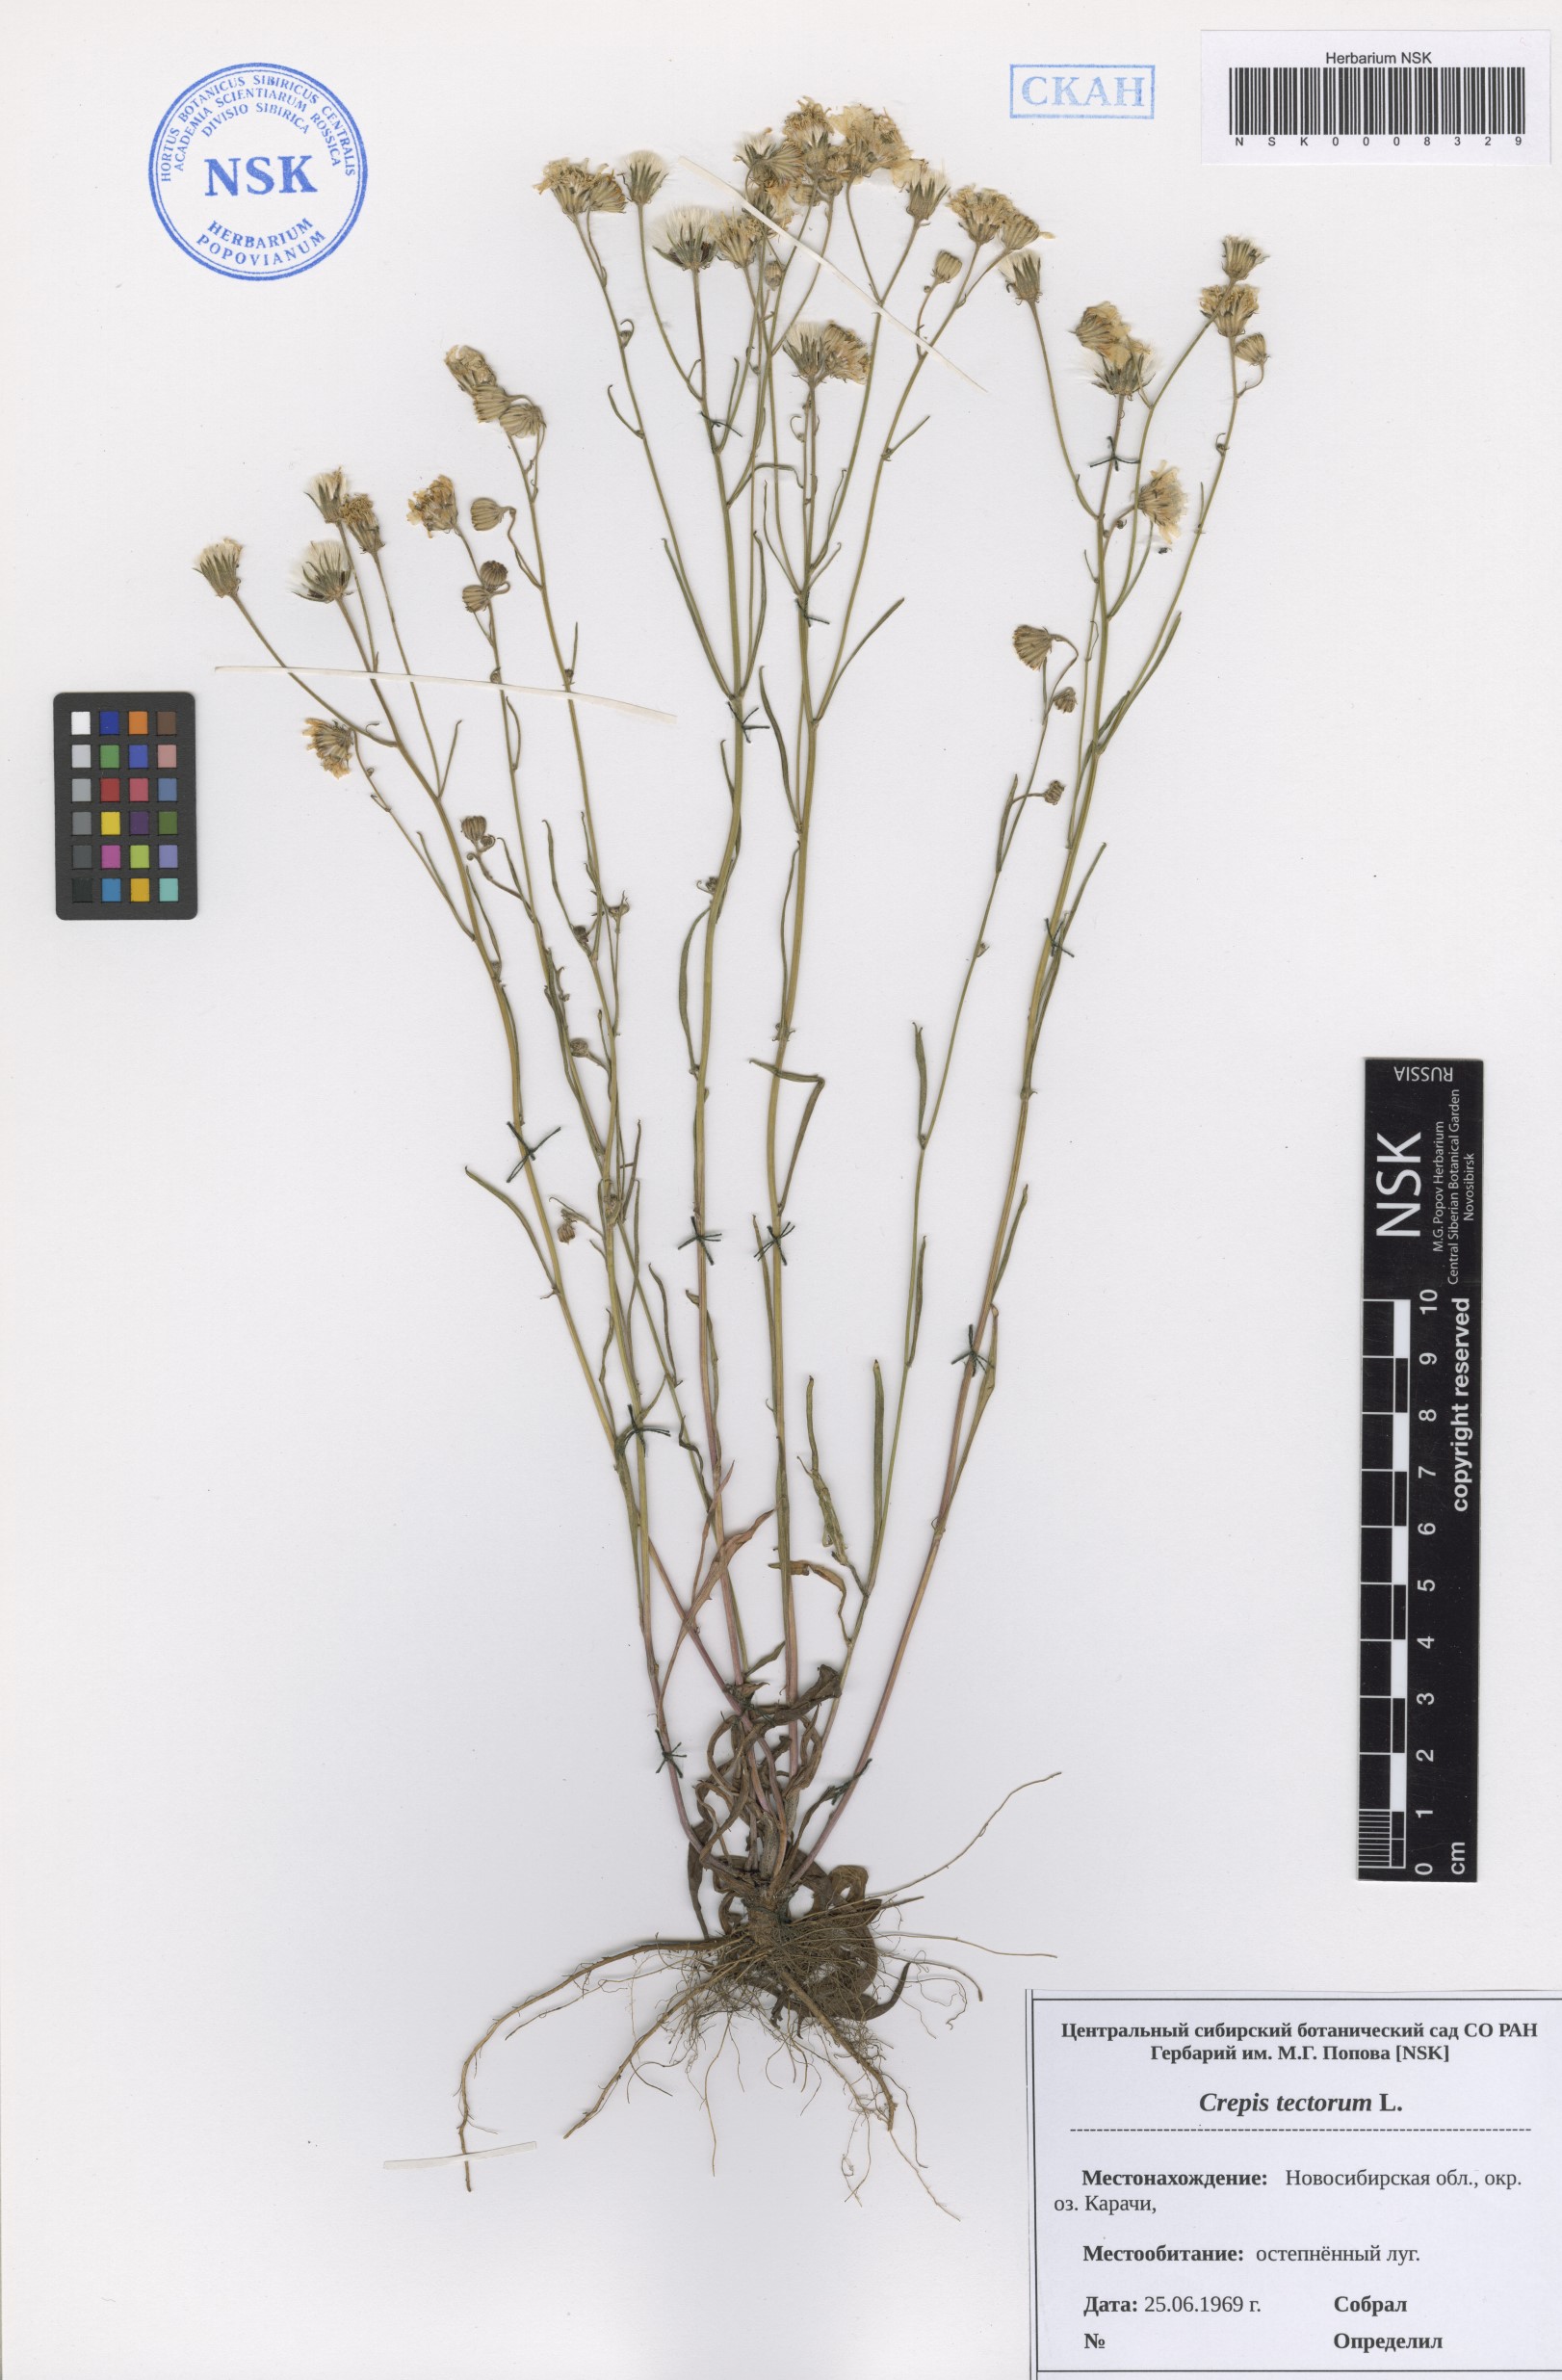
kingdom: Plantae
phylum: Tracheophyta
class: Magnoliopsida
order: Asterales
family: Asteraceae
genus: Crepis
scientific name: Crepis tectorum
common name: Narrow-leaved hawk's-beard
